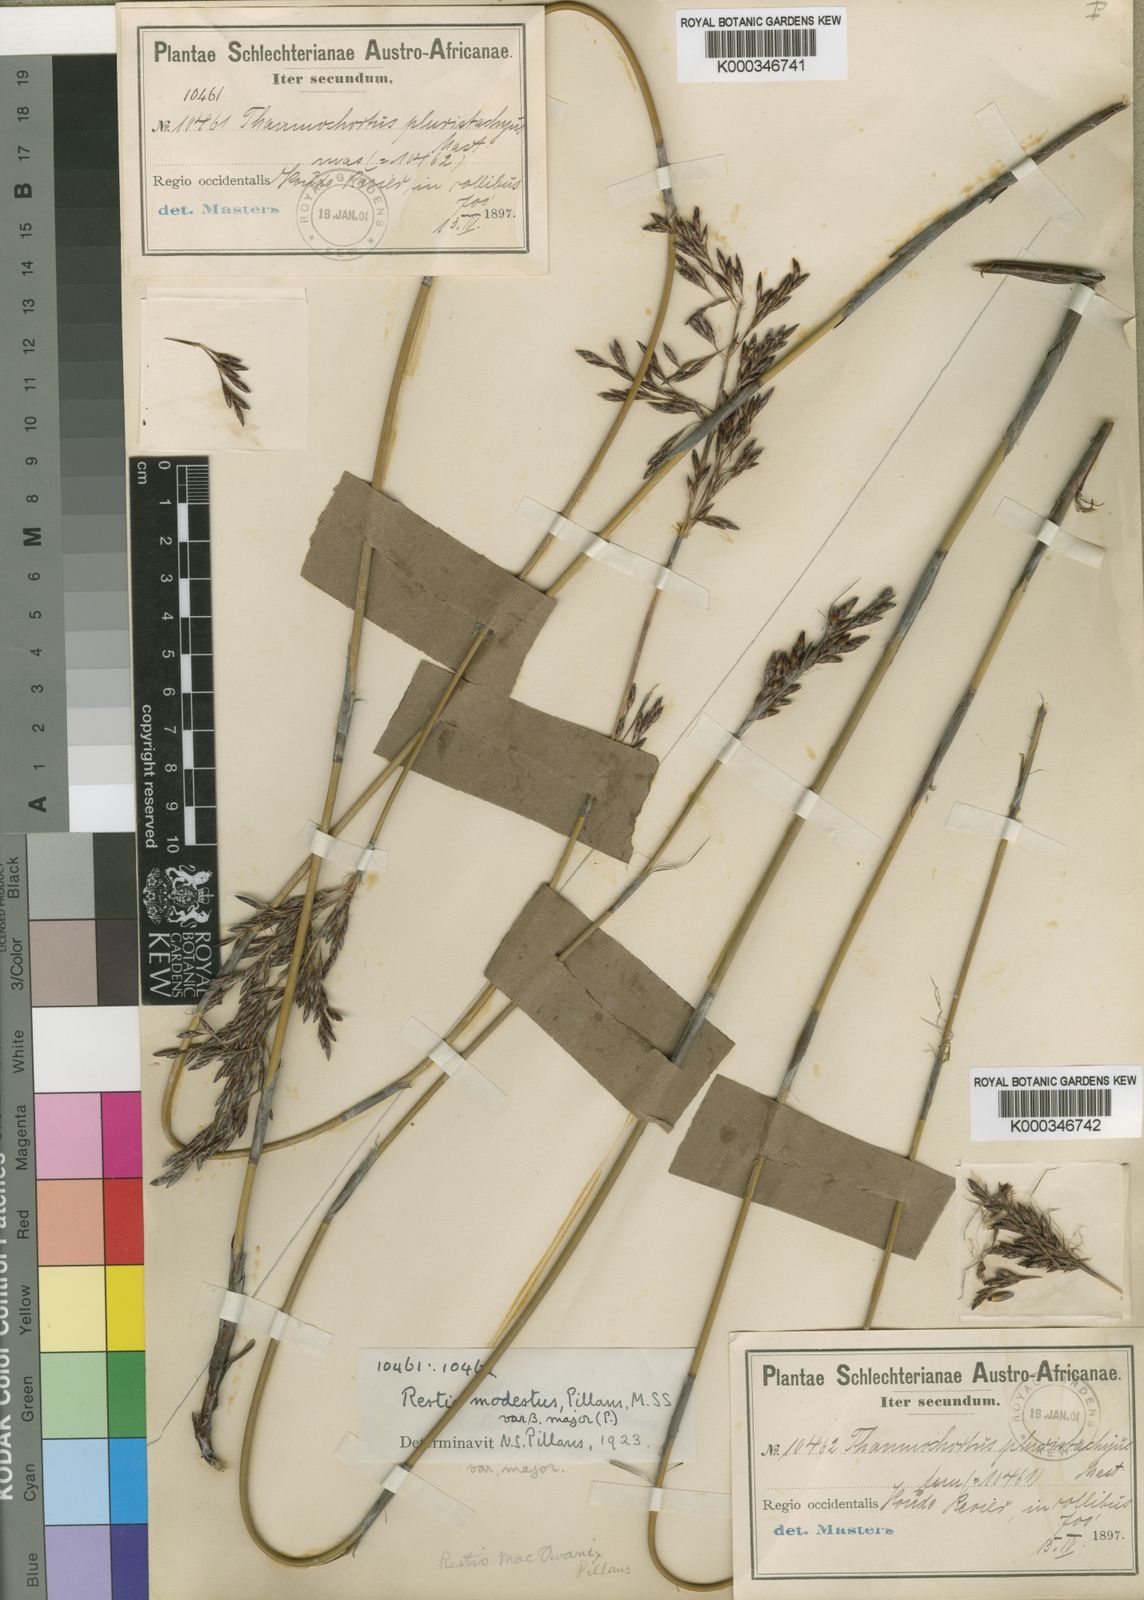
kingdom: Plantae
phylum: Tracheophyta
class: Liliopsida
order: Poales
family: Restionaceae
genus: Rhodocoma
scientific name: Rhodocoma fruticosa
